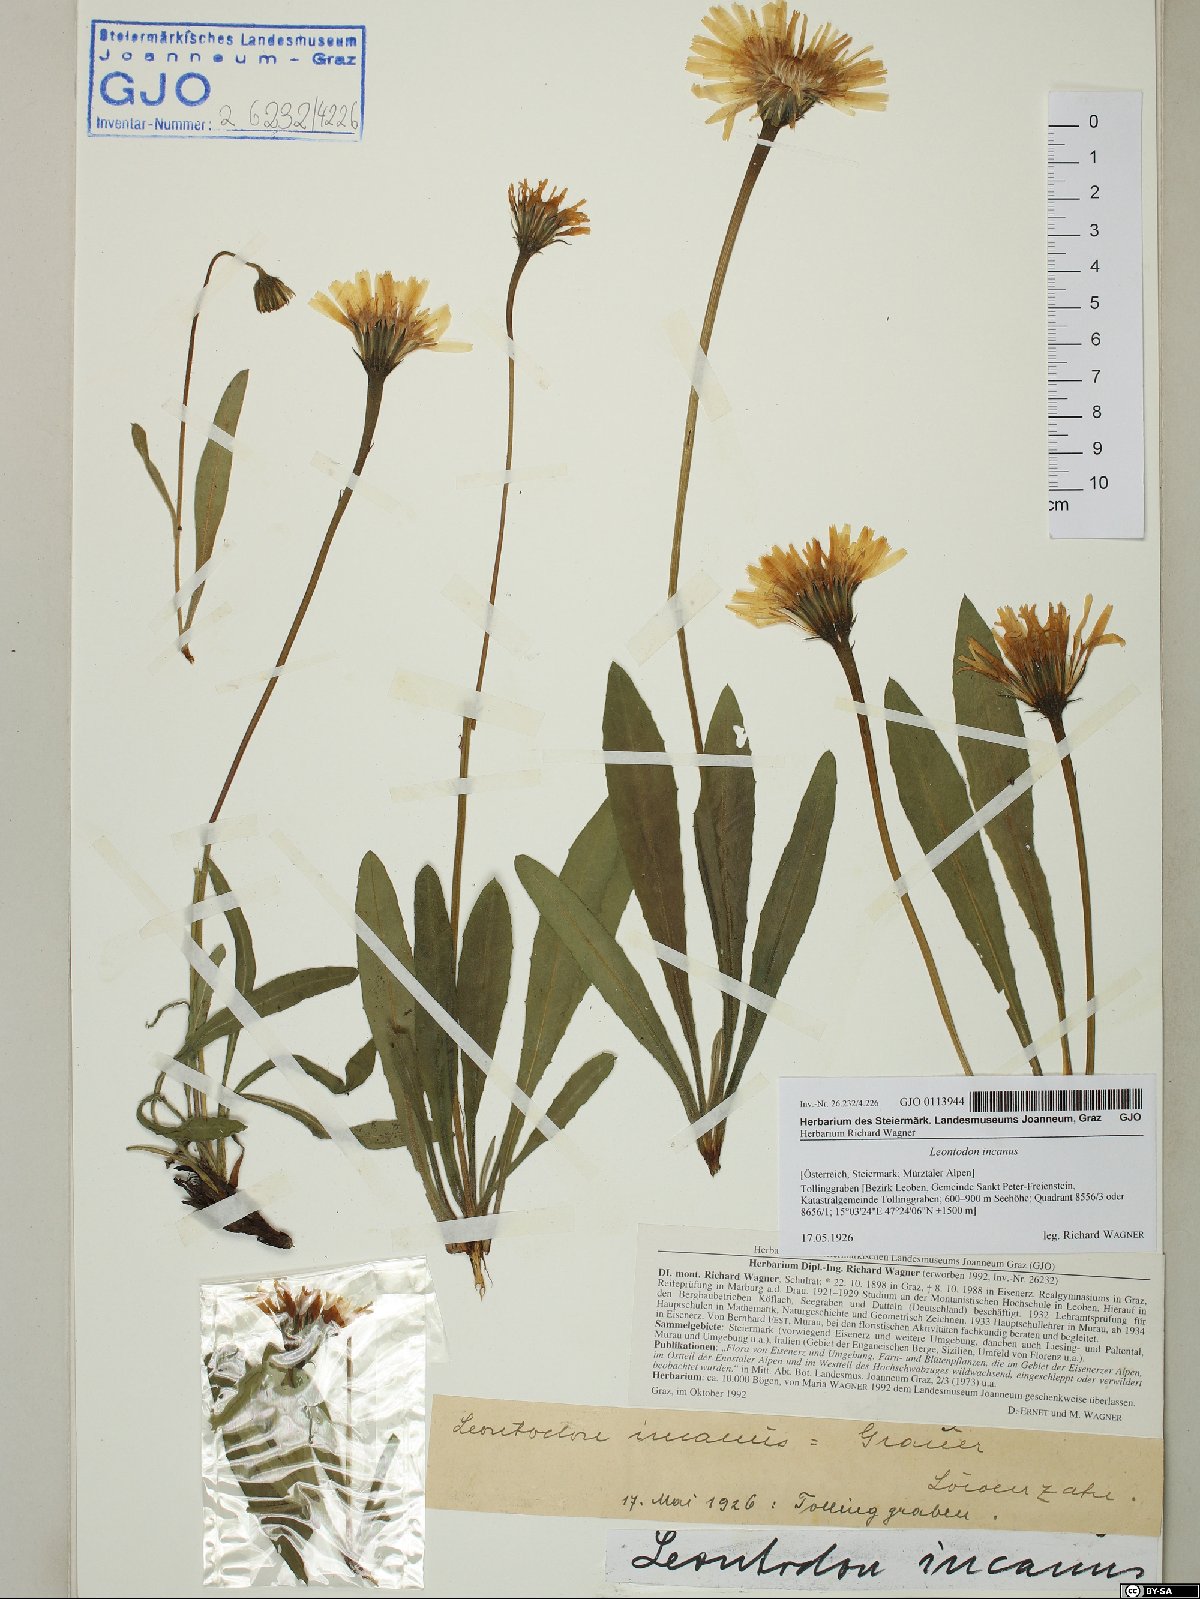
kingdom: Plantae
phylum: Tracheophyta
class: Magnoliopsida
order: Asterales
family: Asteraceae
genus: Leontodon
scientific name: Leontodon incanus
